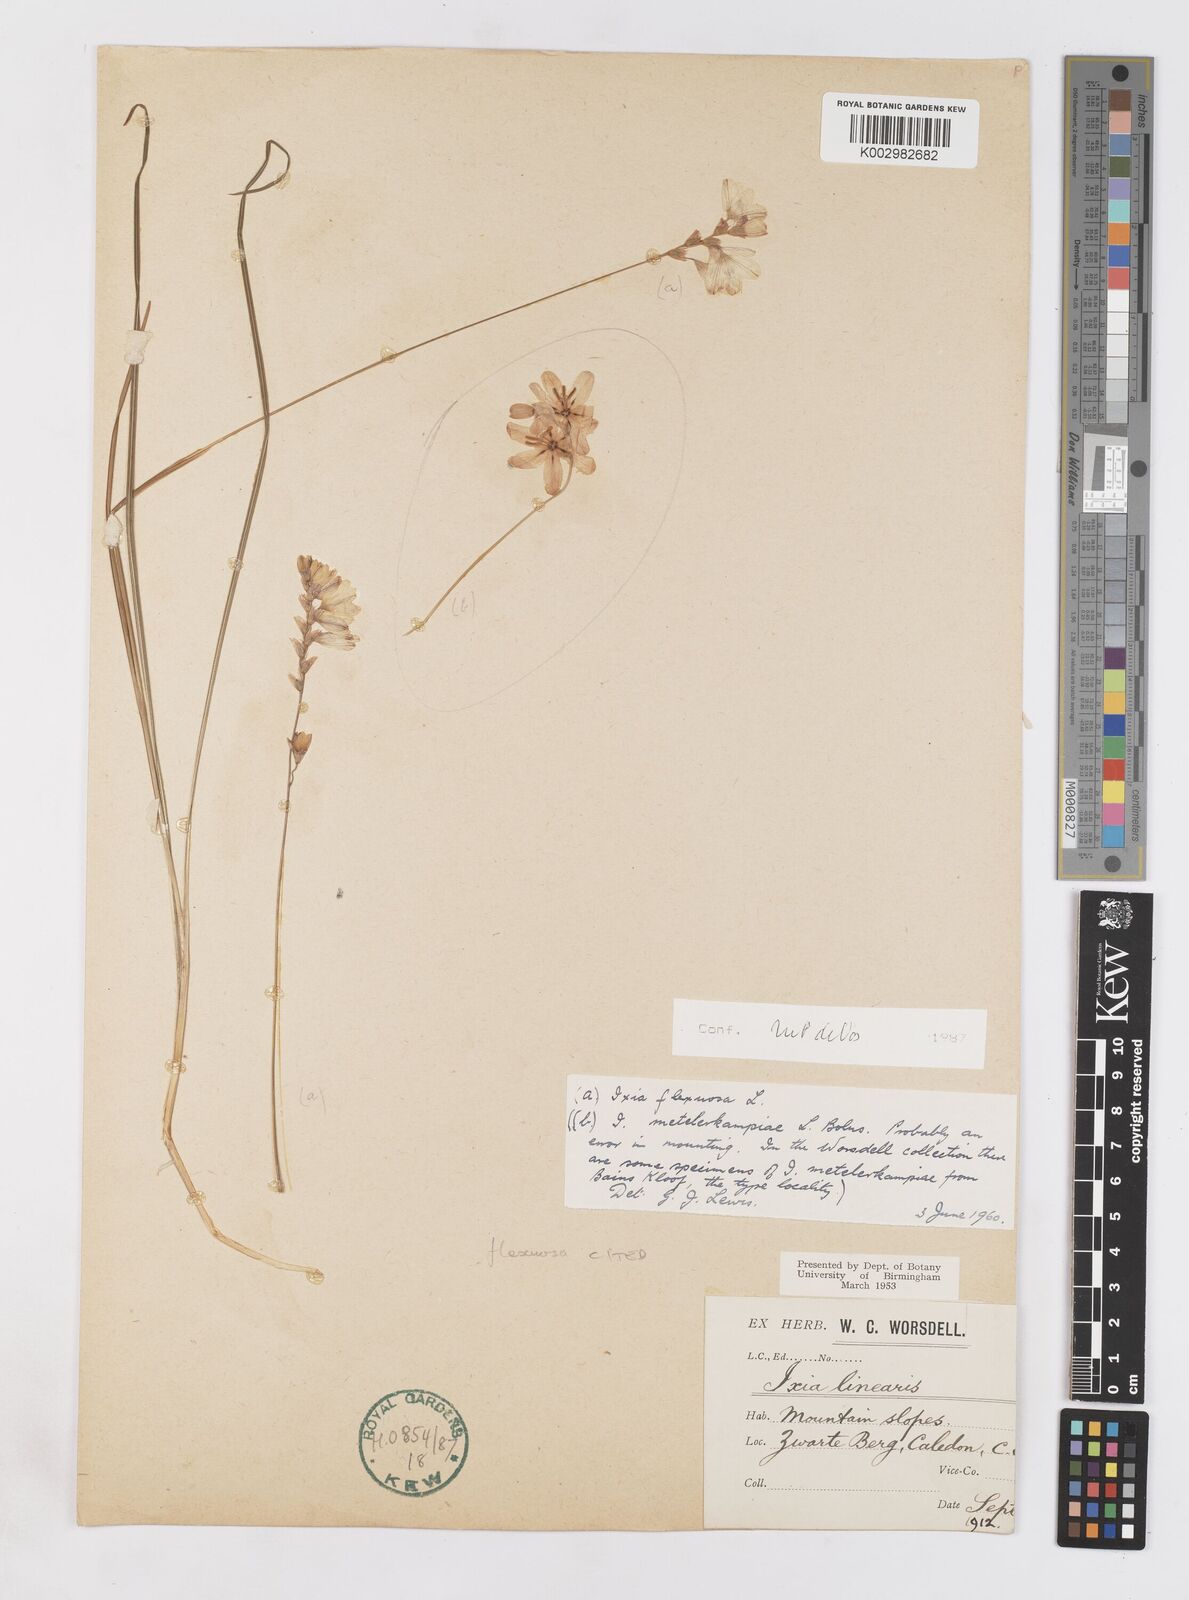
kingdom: Plantae
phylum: Tracheophyta
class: Liliopsida
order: Asparagales
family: Iridaceae
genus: Ixia
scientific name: Ixia flexuosa
